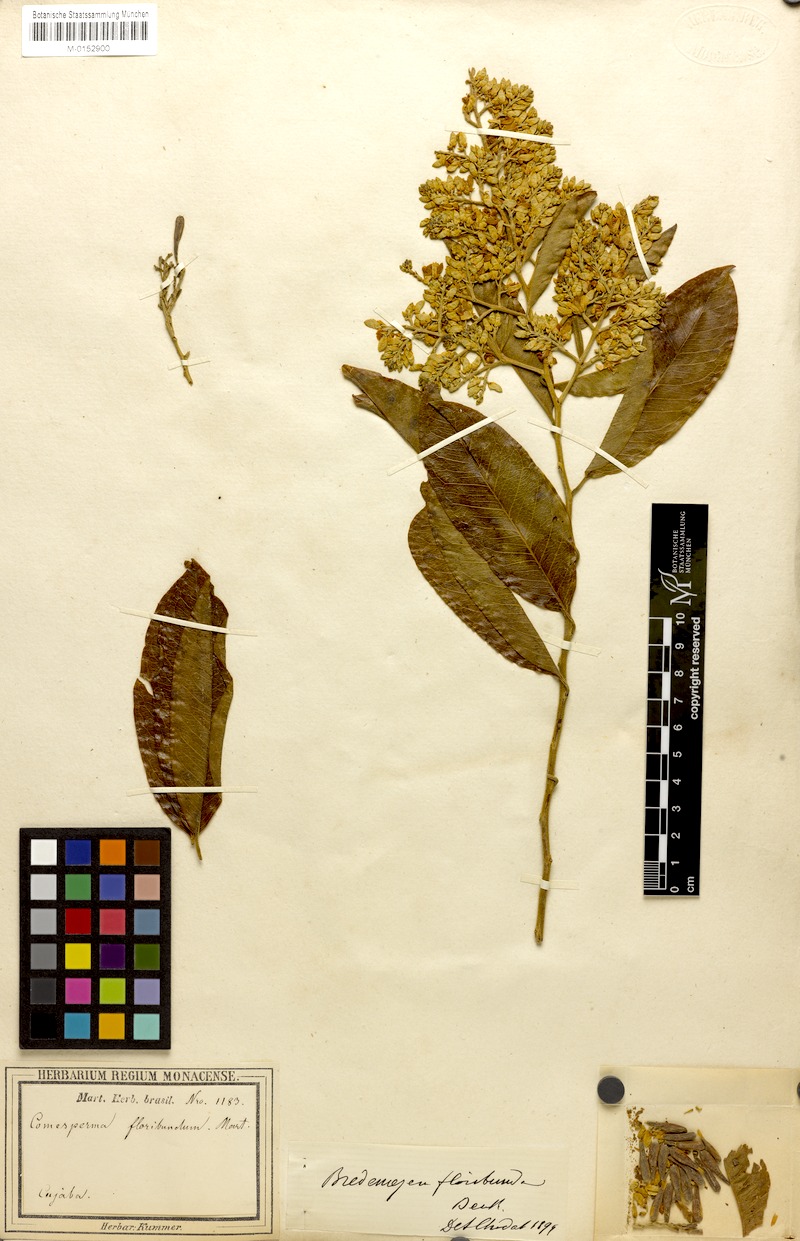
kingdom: Plantae
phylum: Tracheophyta
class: Magnoliopsida
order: Fabales
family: Polygalaceae
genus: Bredemeyera
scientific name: Bredemeyera floribunda
